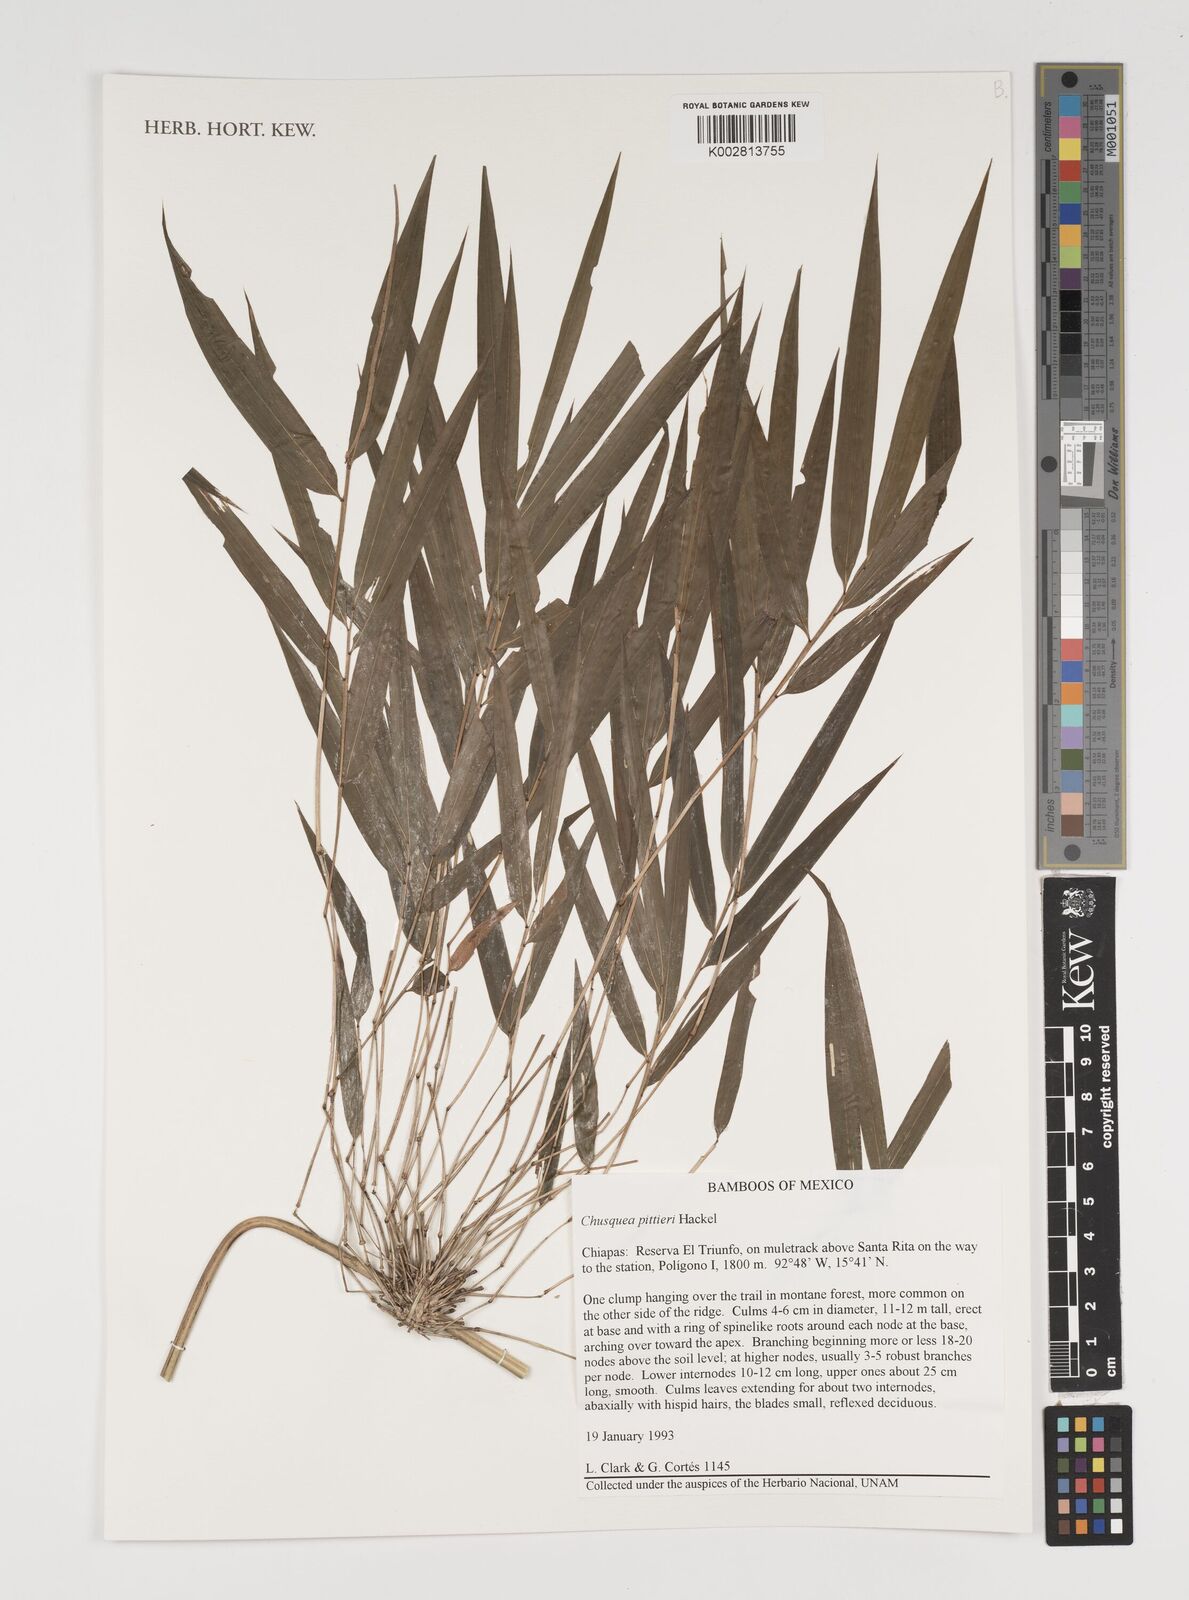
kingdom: Plantae
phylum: Tracheophyta
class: Liliopsida
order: Poales
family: Poaceae
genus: Chusquea
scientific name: Chusquea pittieri
